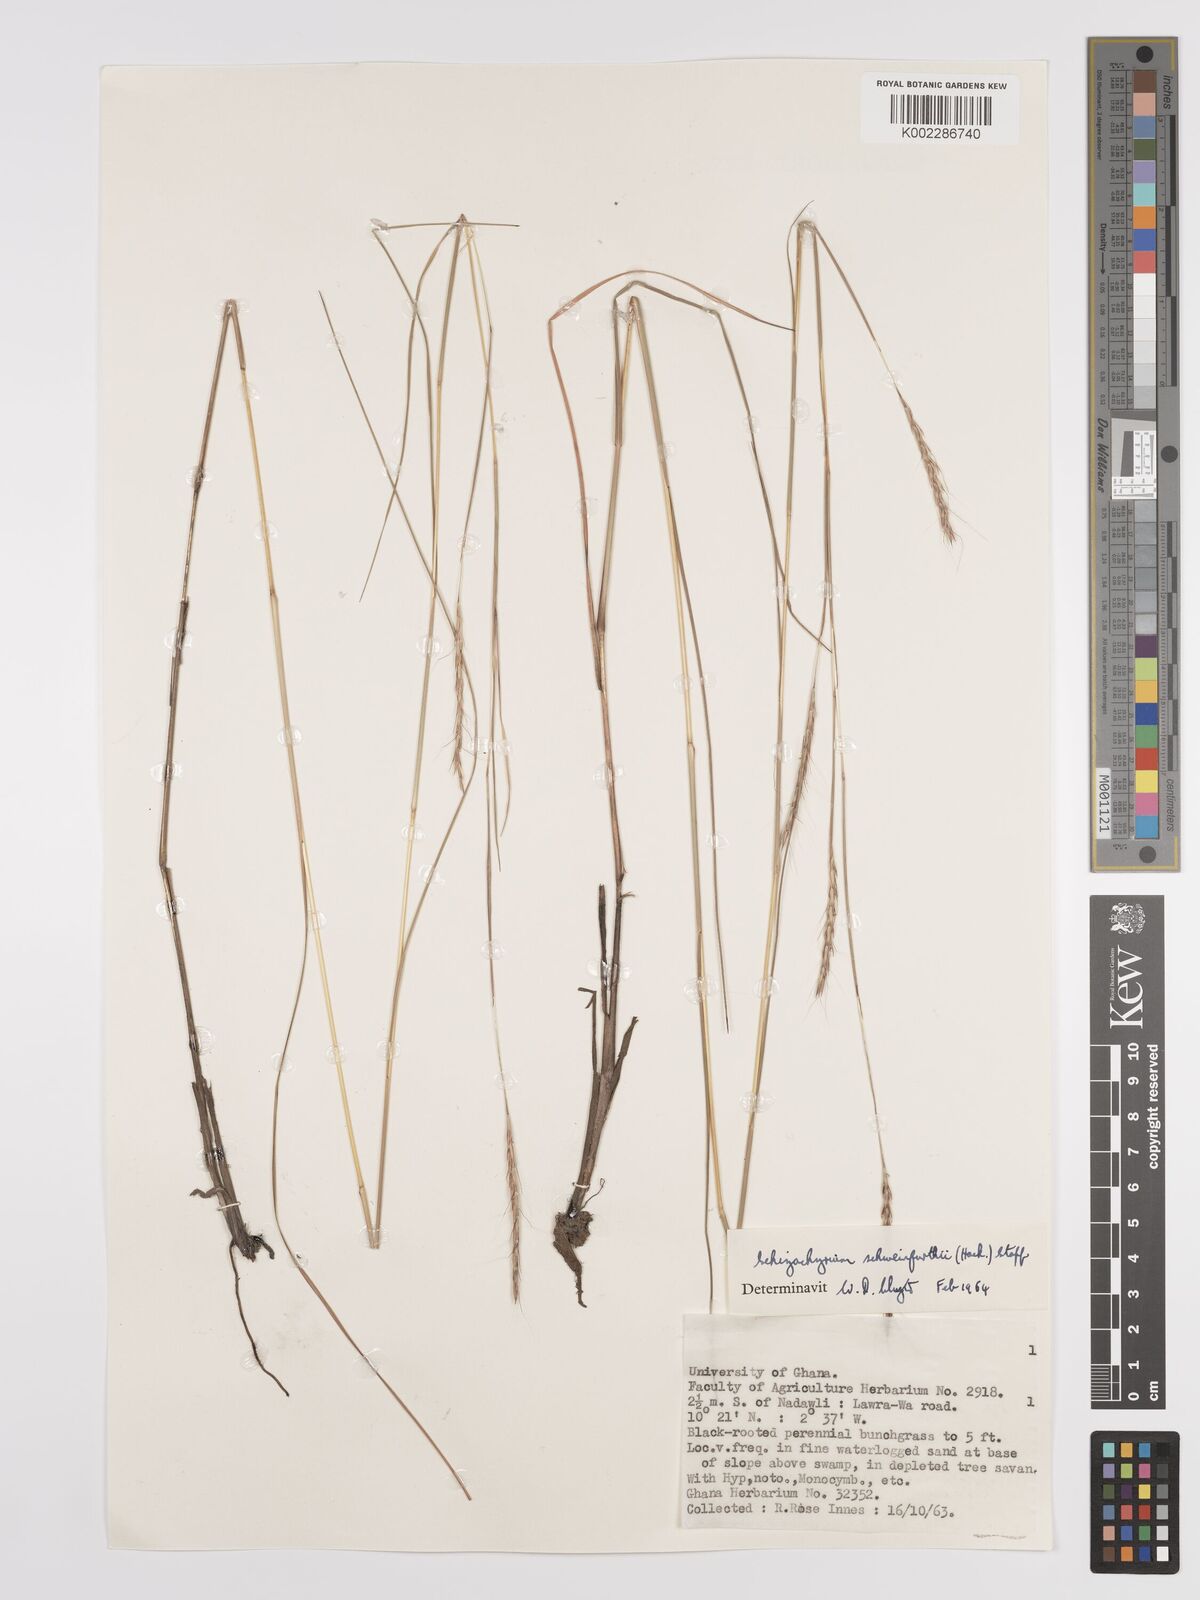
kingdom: Plantae
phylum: Tracheophyta
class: Liliopsida
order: Poales
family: Poaceae
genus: Andropogon
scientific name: Andropogon schweinfurthii
